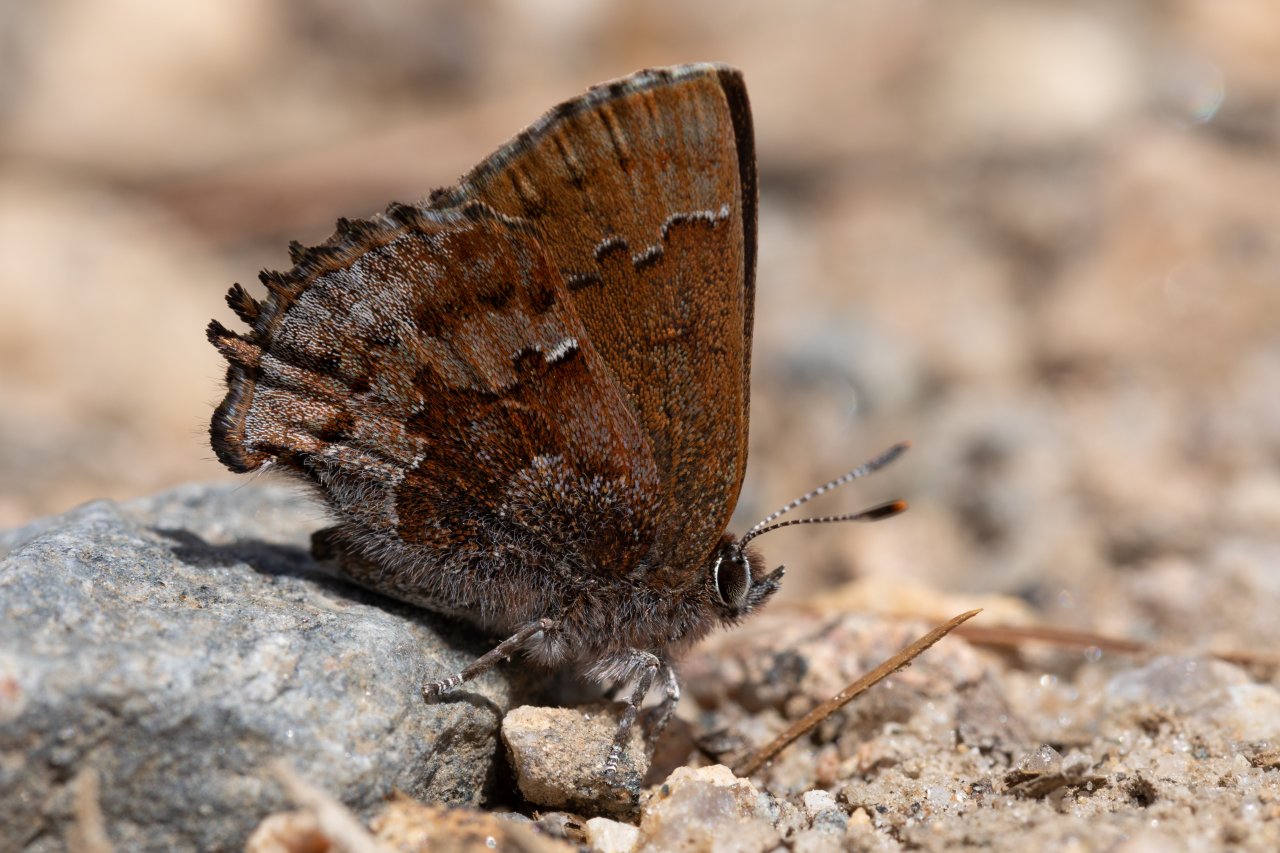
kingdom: Animalia
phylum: Arthropoda
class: Insecta
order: Lepidoptera
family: Lycaenidae
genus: Thecla
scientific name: Thecla irus
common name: Frosted Elfin
